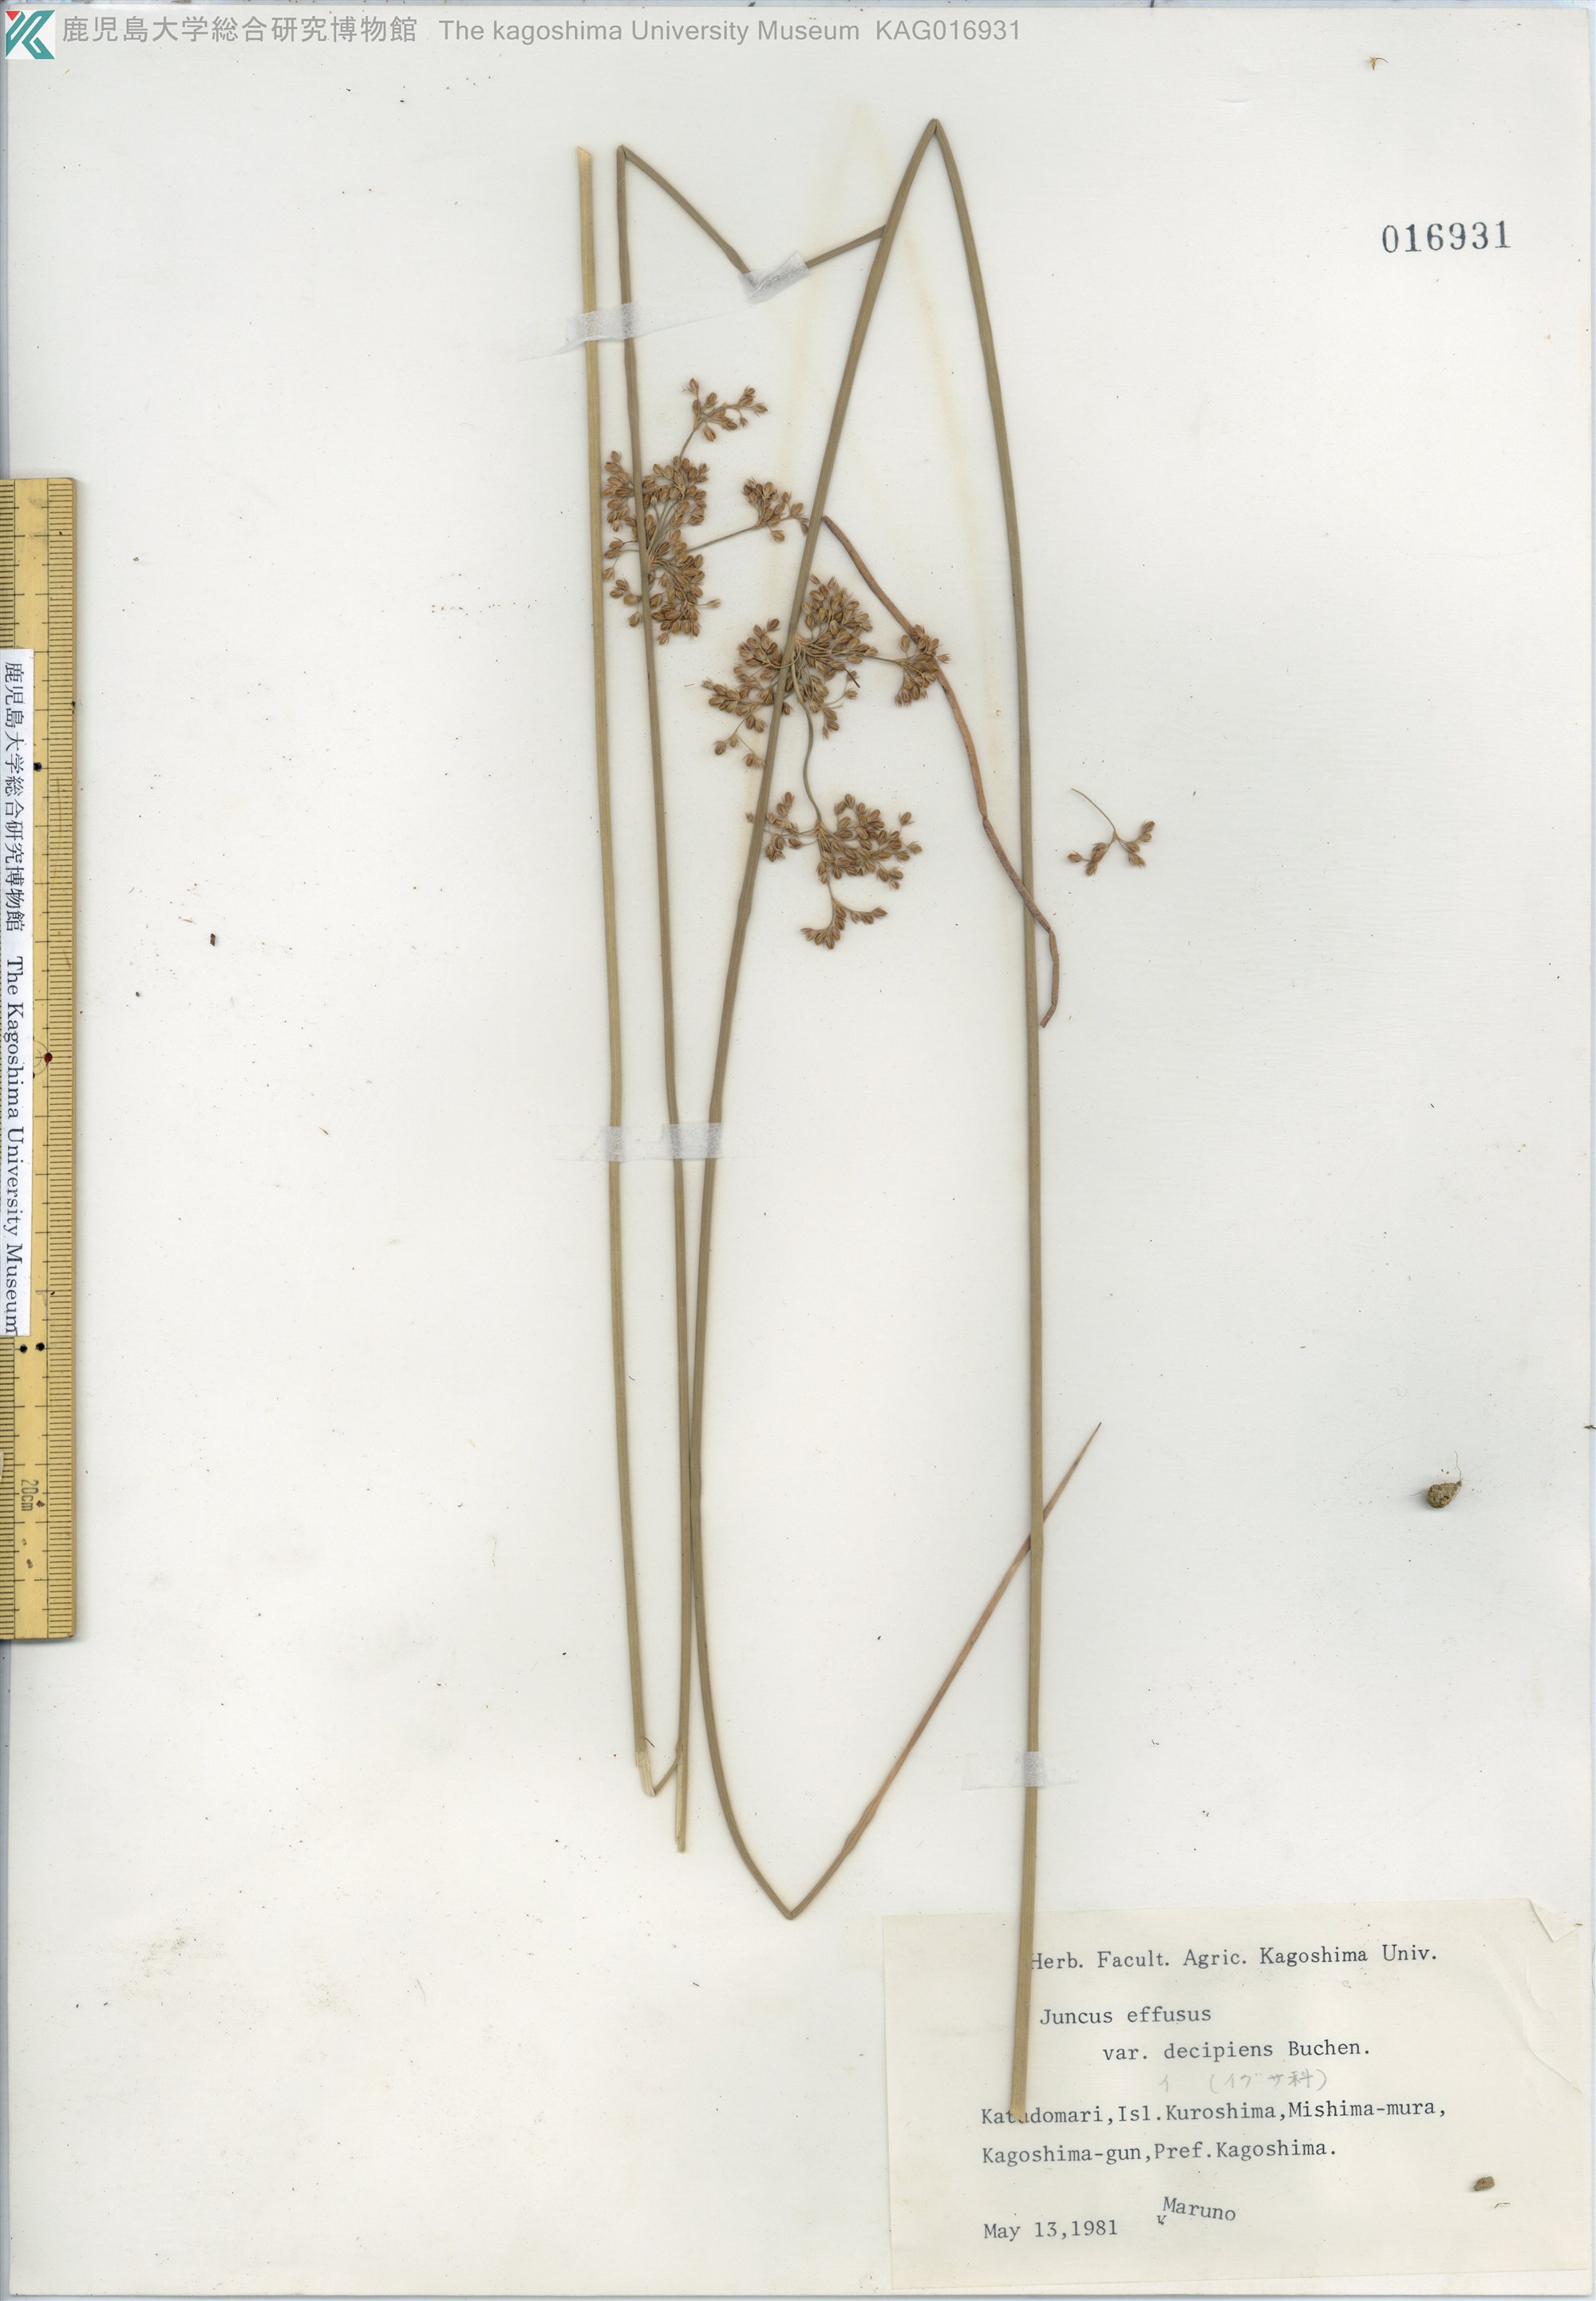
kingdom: Plantae
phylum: Tracheophyta
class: Liliopsida
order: Poales
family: Juncaceae
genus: Juncus
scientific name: Juncus decipiens
